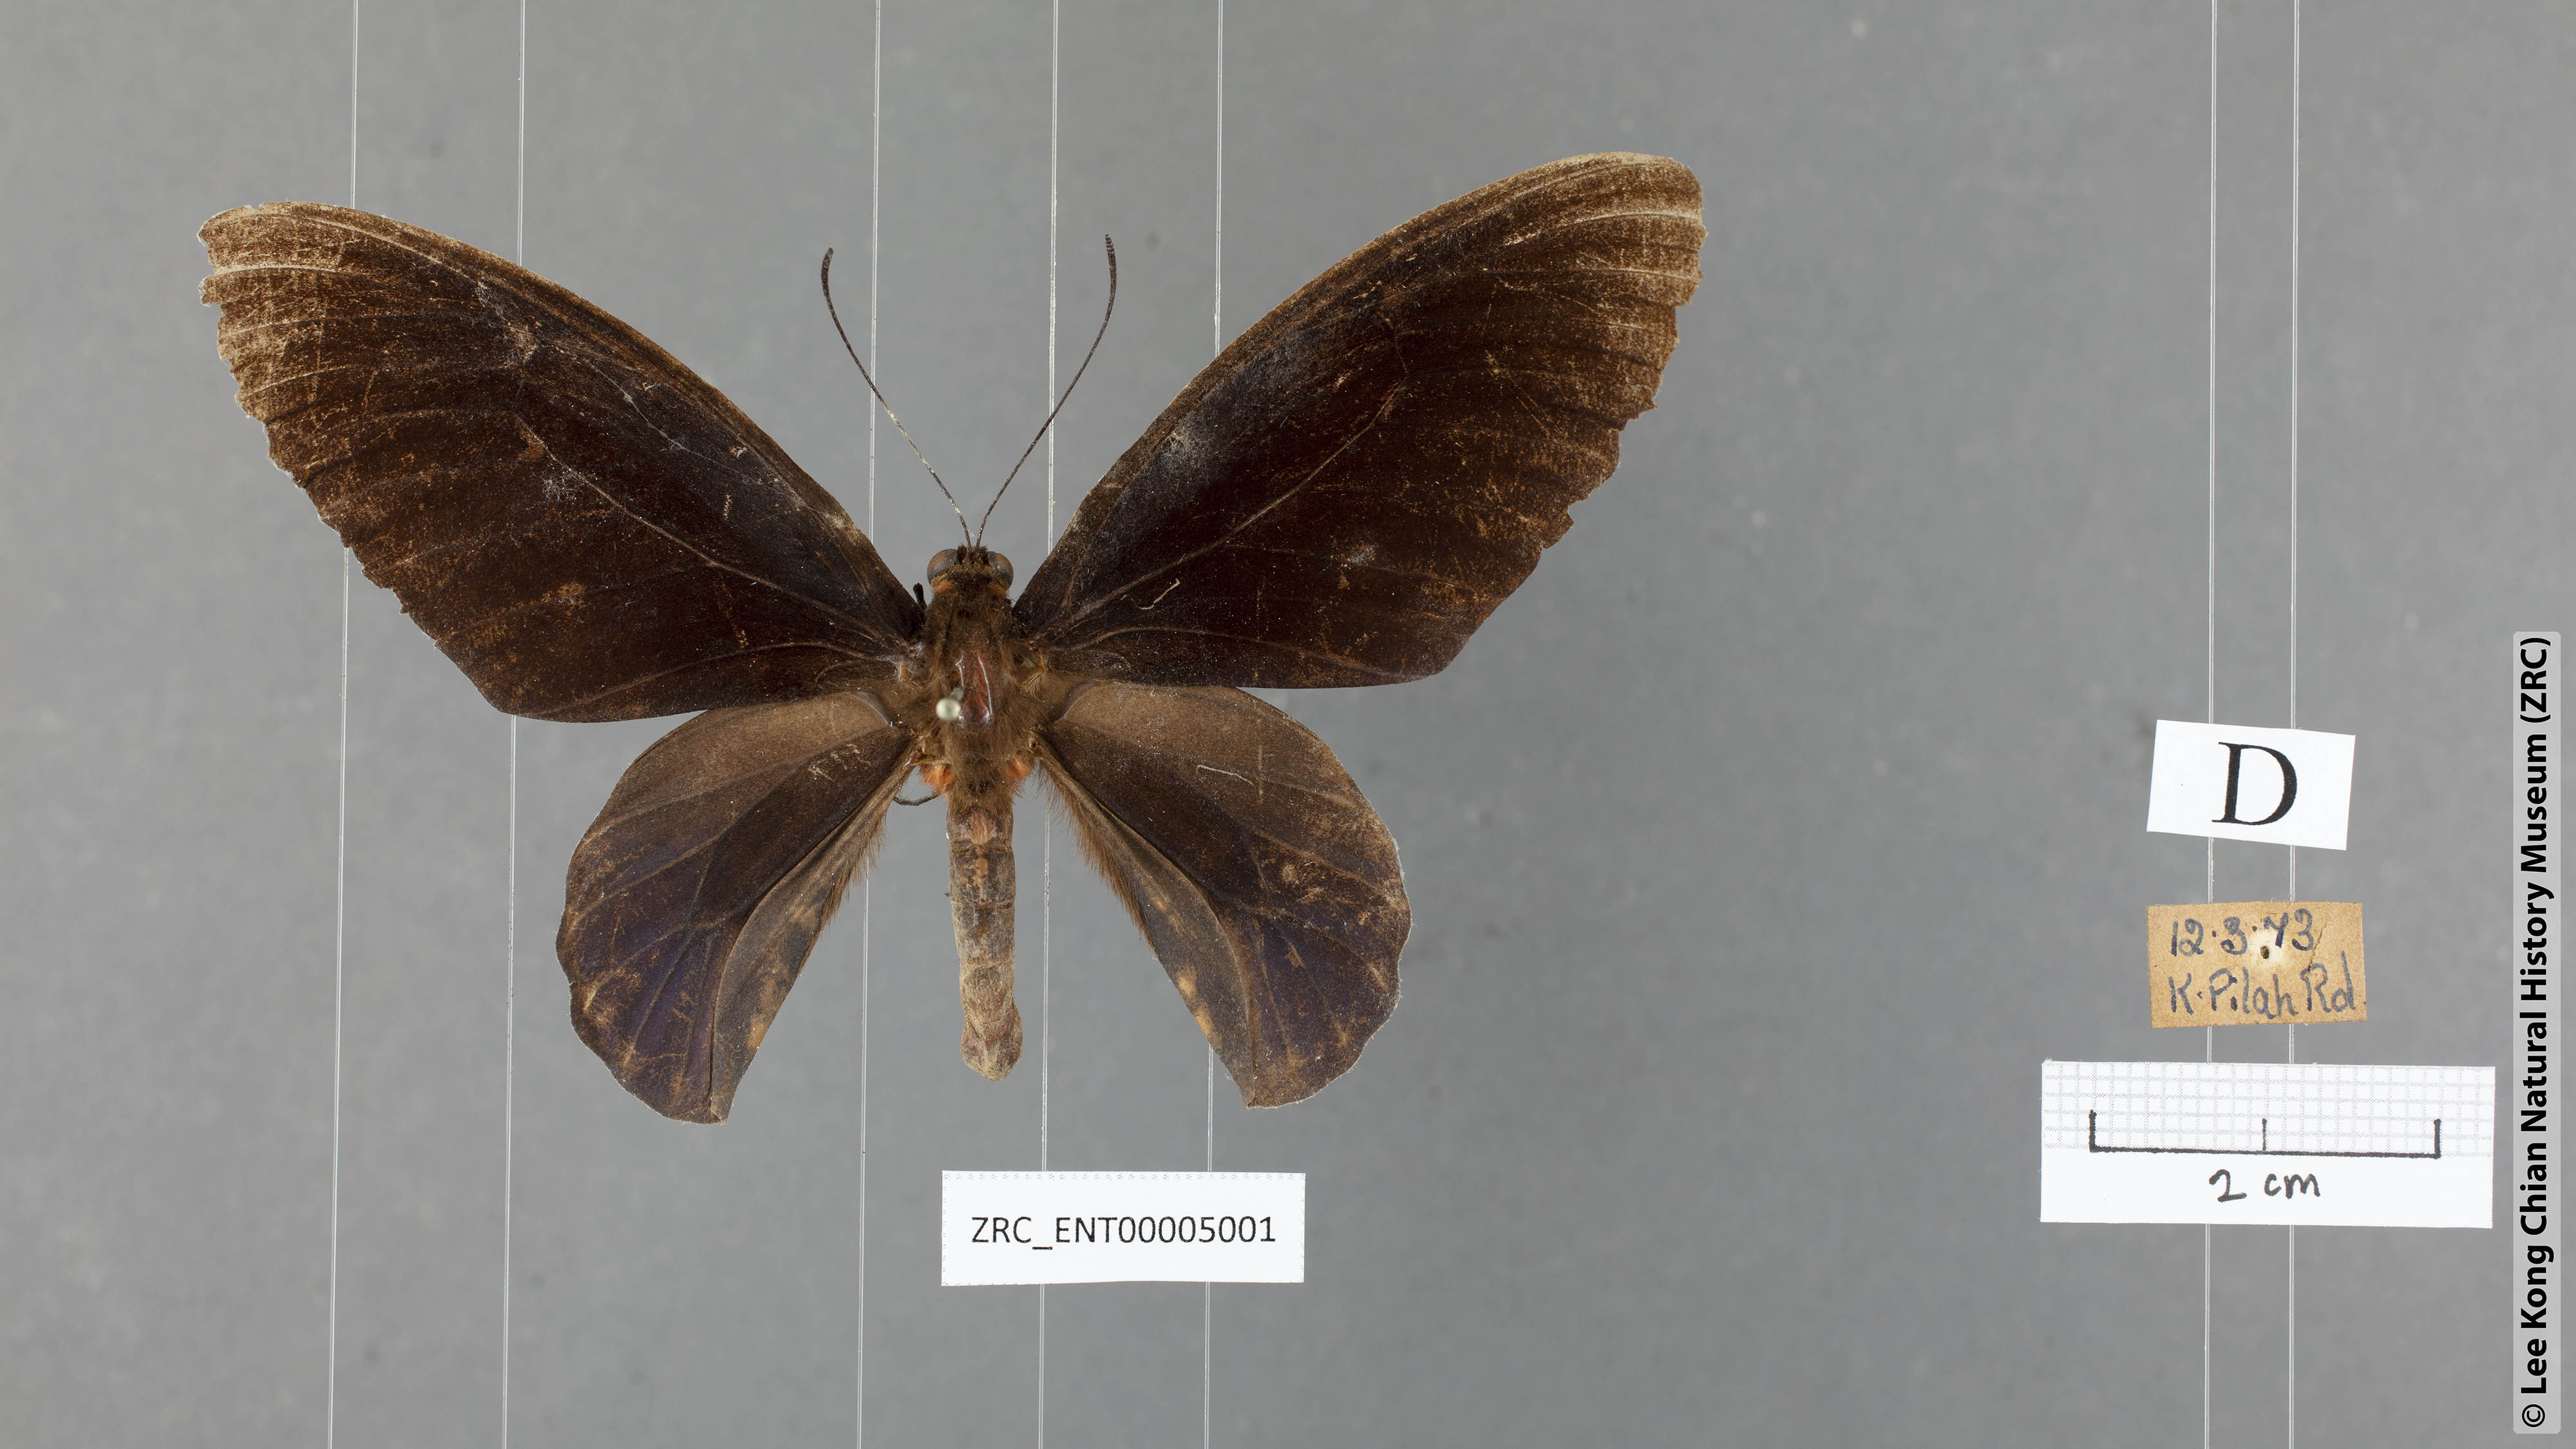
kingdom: Animalia
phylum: Arthropoda
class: Insecta
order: Lepidoptera
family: Papilionidae
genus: Atrophaneura
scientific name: Atrophaneura varuna
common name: Common batwing
